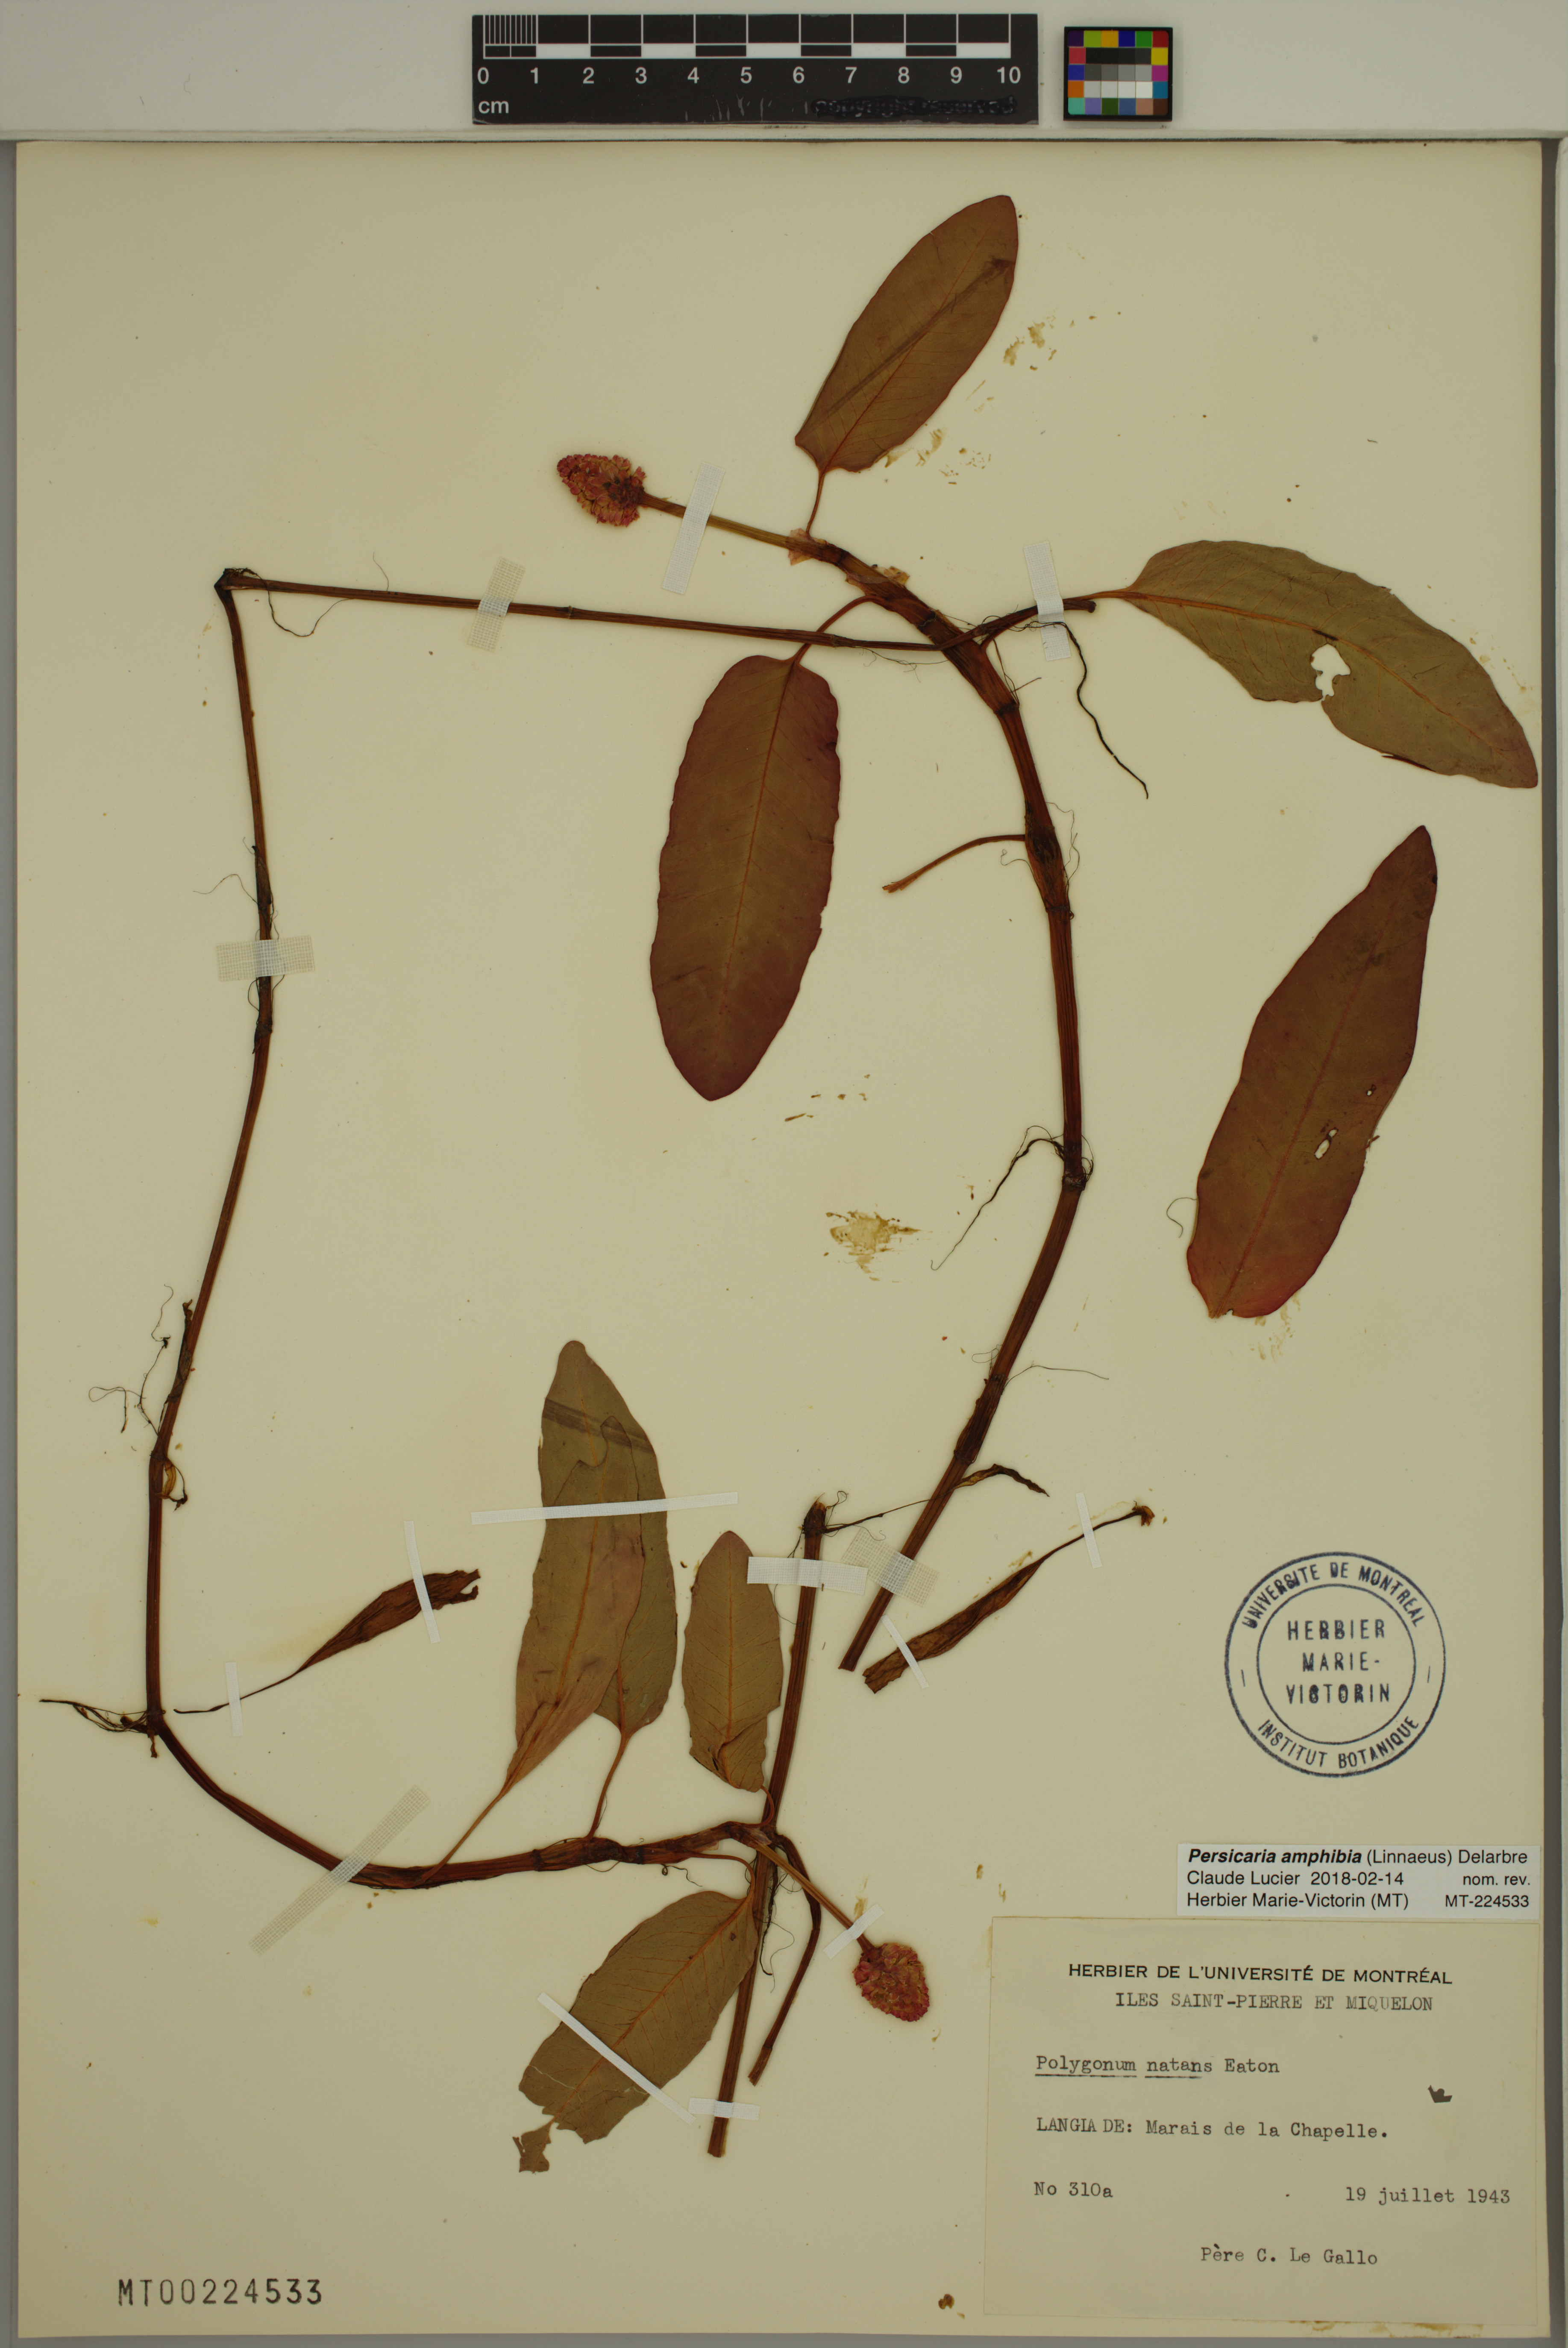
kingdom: Plantae
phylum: Tracheophyta
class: Magnoliopsida
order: Caryophyllales
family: Polygonaceae
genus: Persicaria
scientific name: Persicaria amphibia
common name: Amphibious bistort
